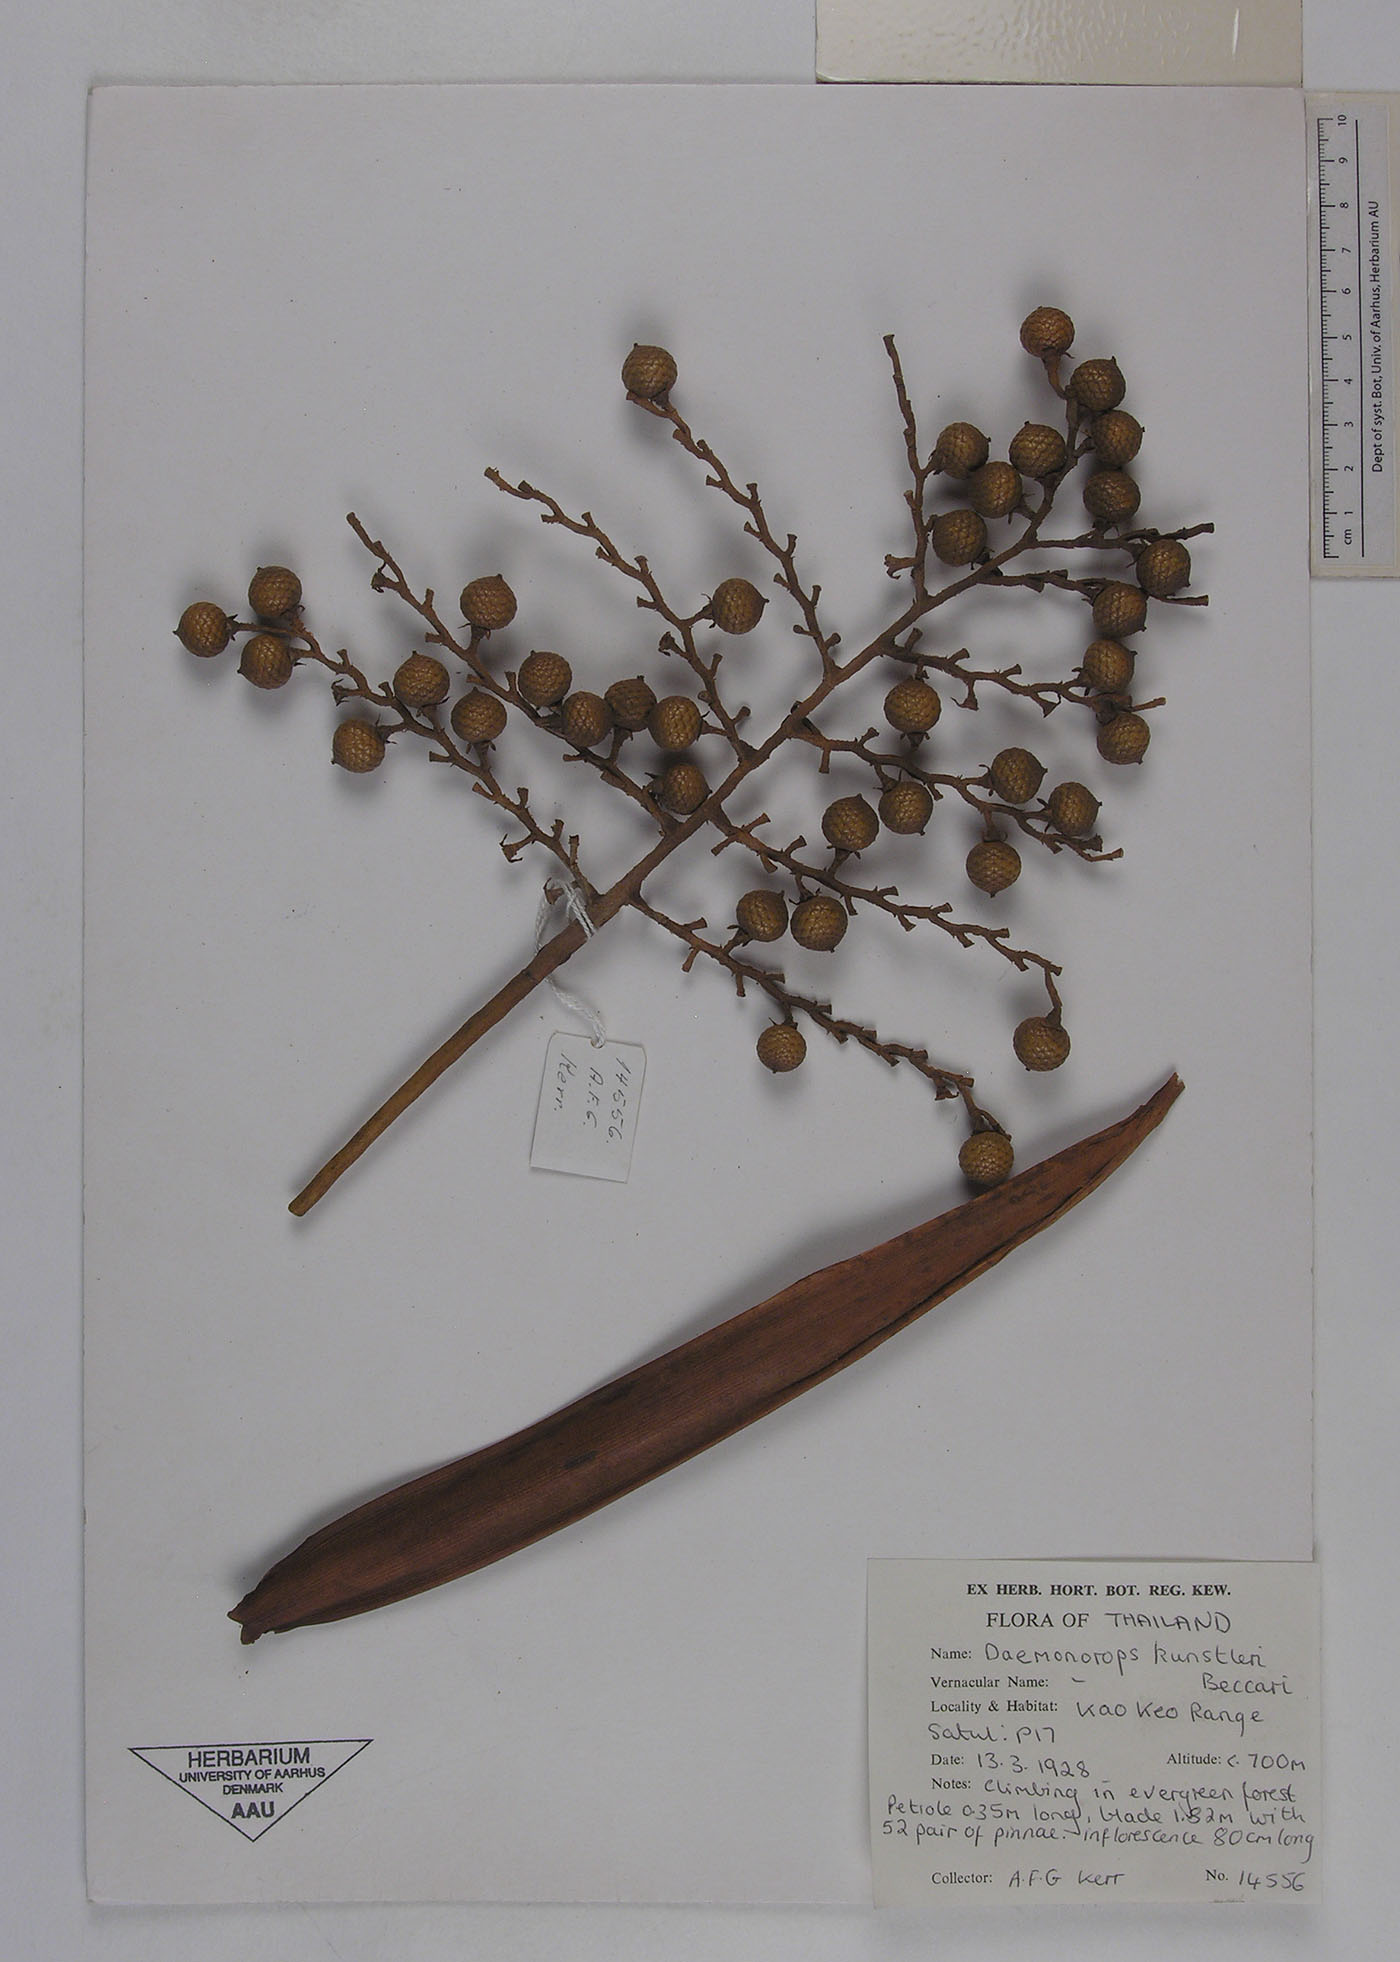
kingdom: Plantae
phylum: Tracheophyta
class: Liliopsida
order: Arecales
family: Arecaceae
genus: Calamus
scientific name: Calamus kunstleri
